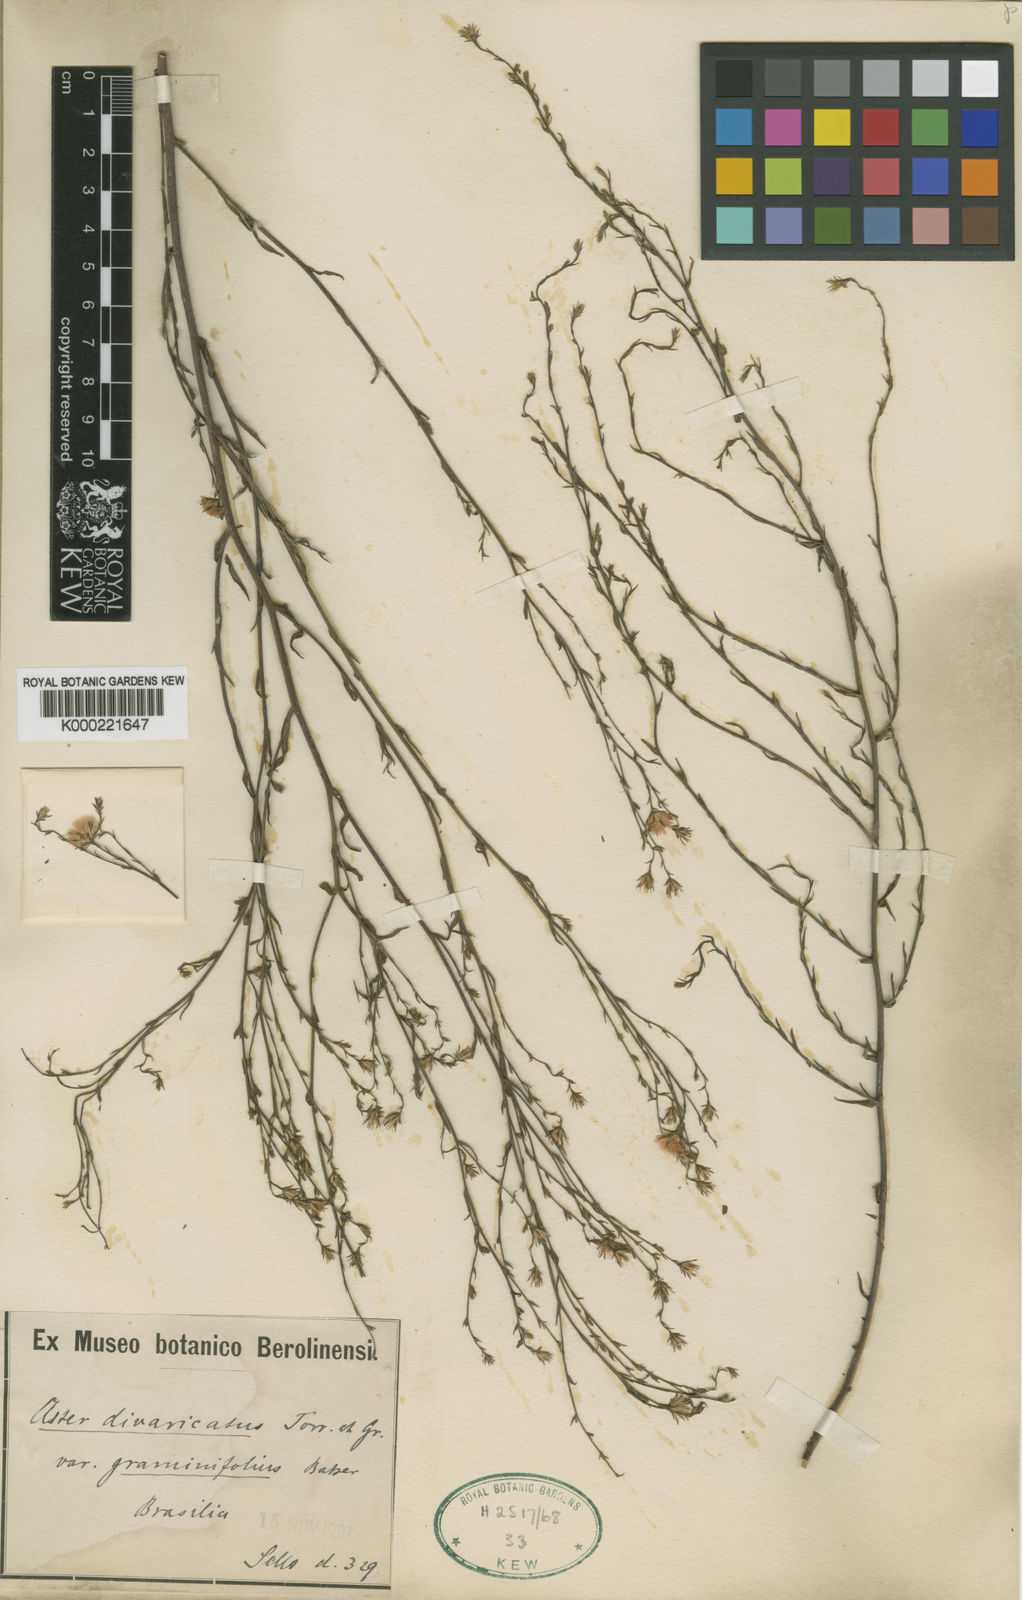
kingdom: Plantae
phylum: Tracheophyta
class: Magnoliopsida
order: Asterales
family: Asteraceae
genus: Symphyotrichum
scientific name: Symphyotrichum squamatum
